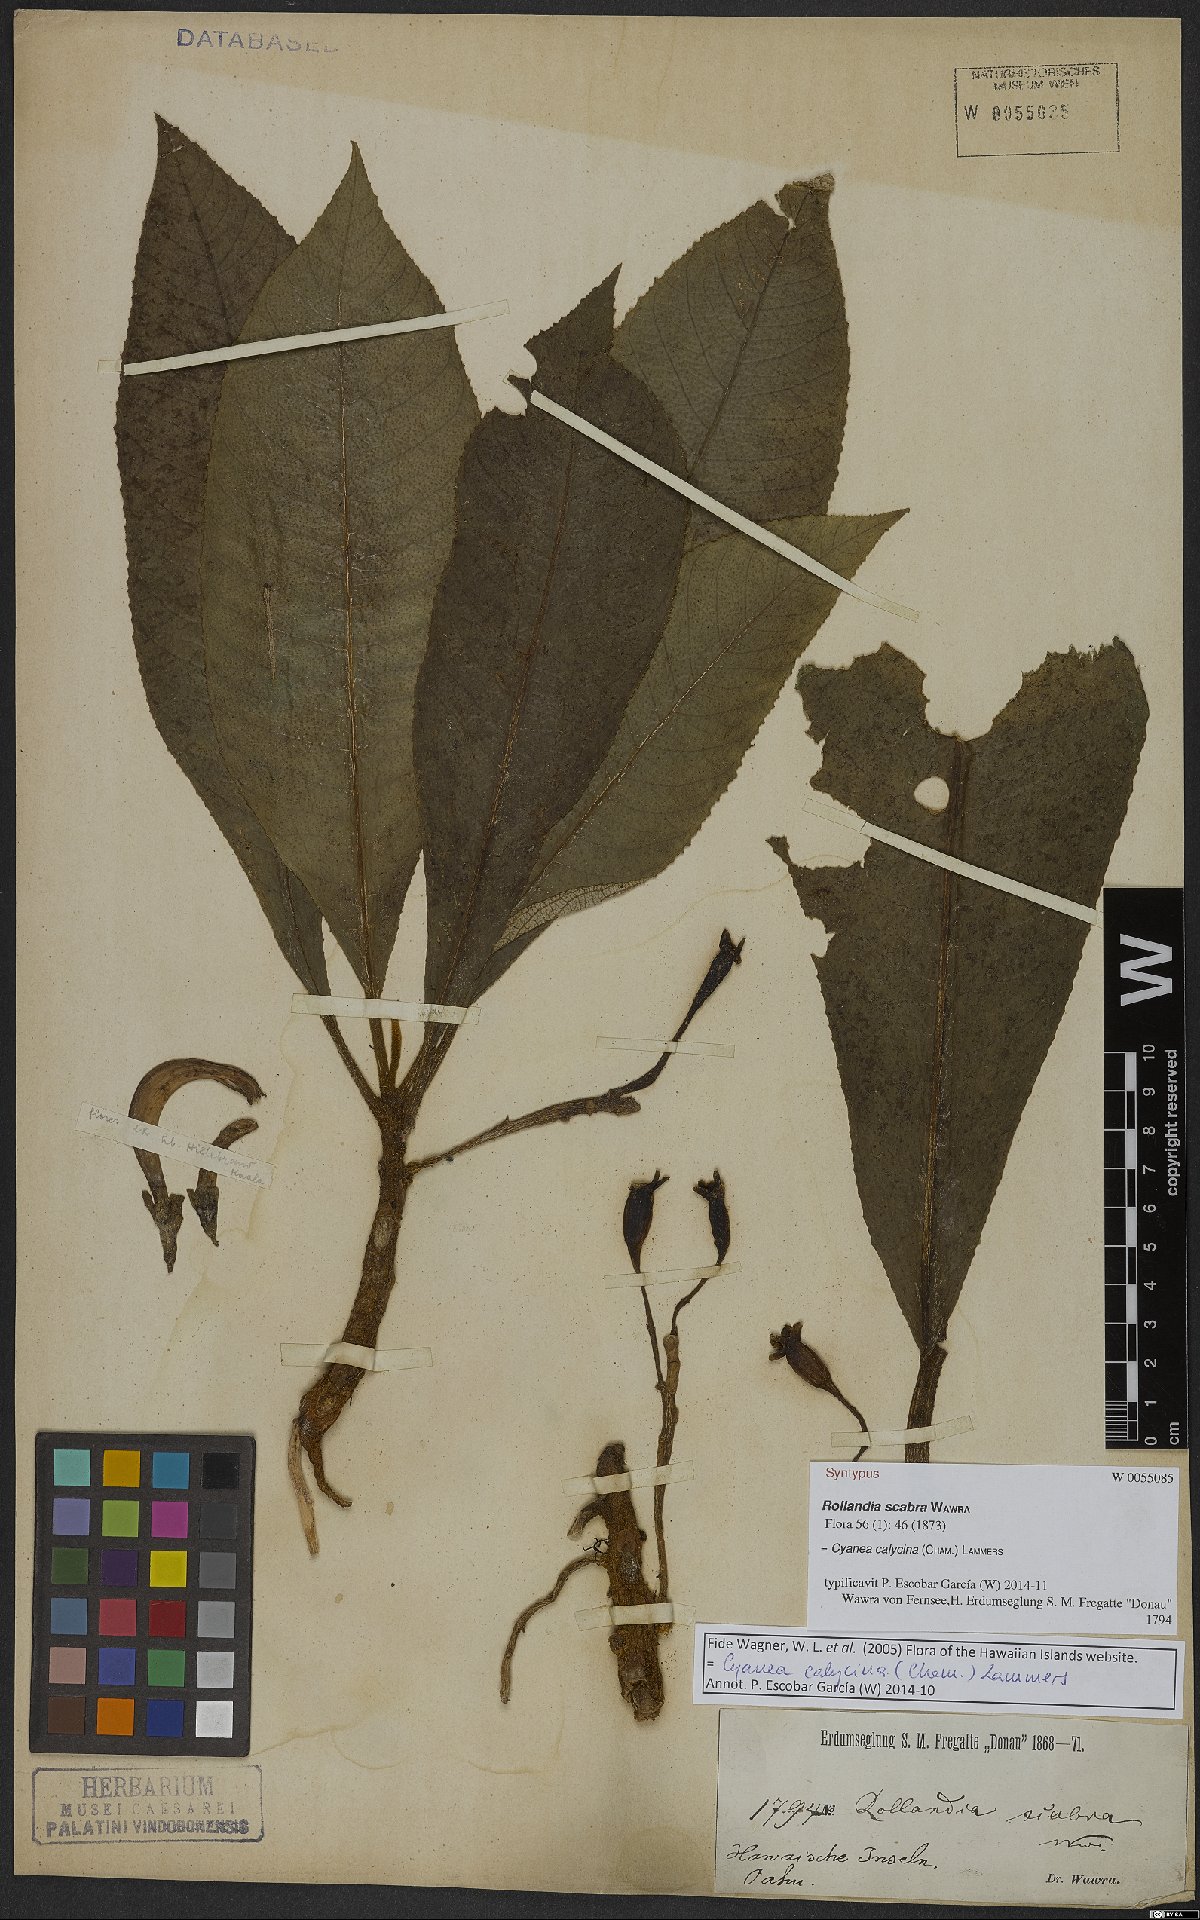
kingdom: Plantae
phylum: Tracheophyta
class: Magnoliopsida
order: Asterales
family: Campanulaceae
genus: Cyanea
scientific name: Cyanea calycina
